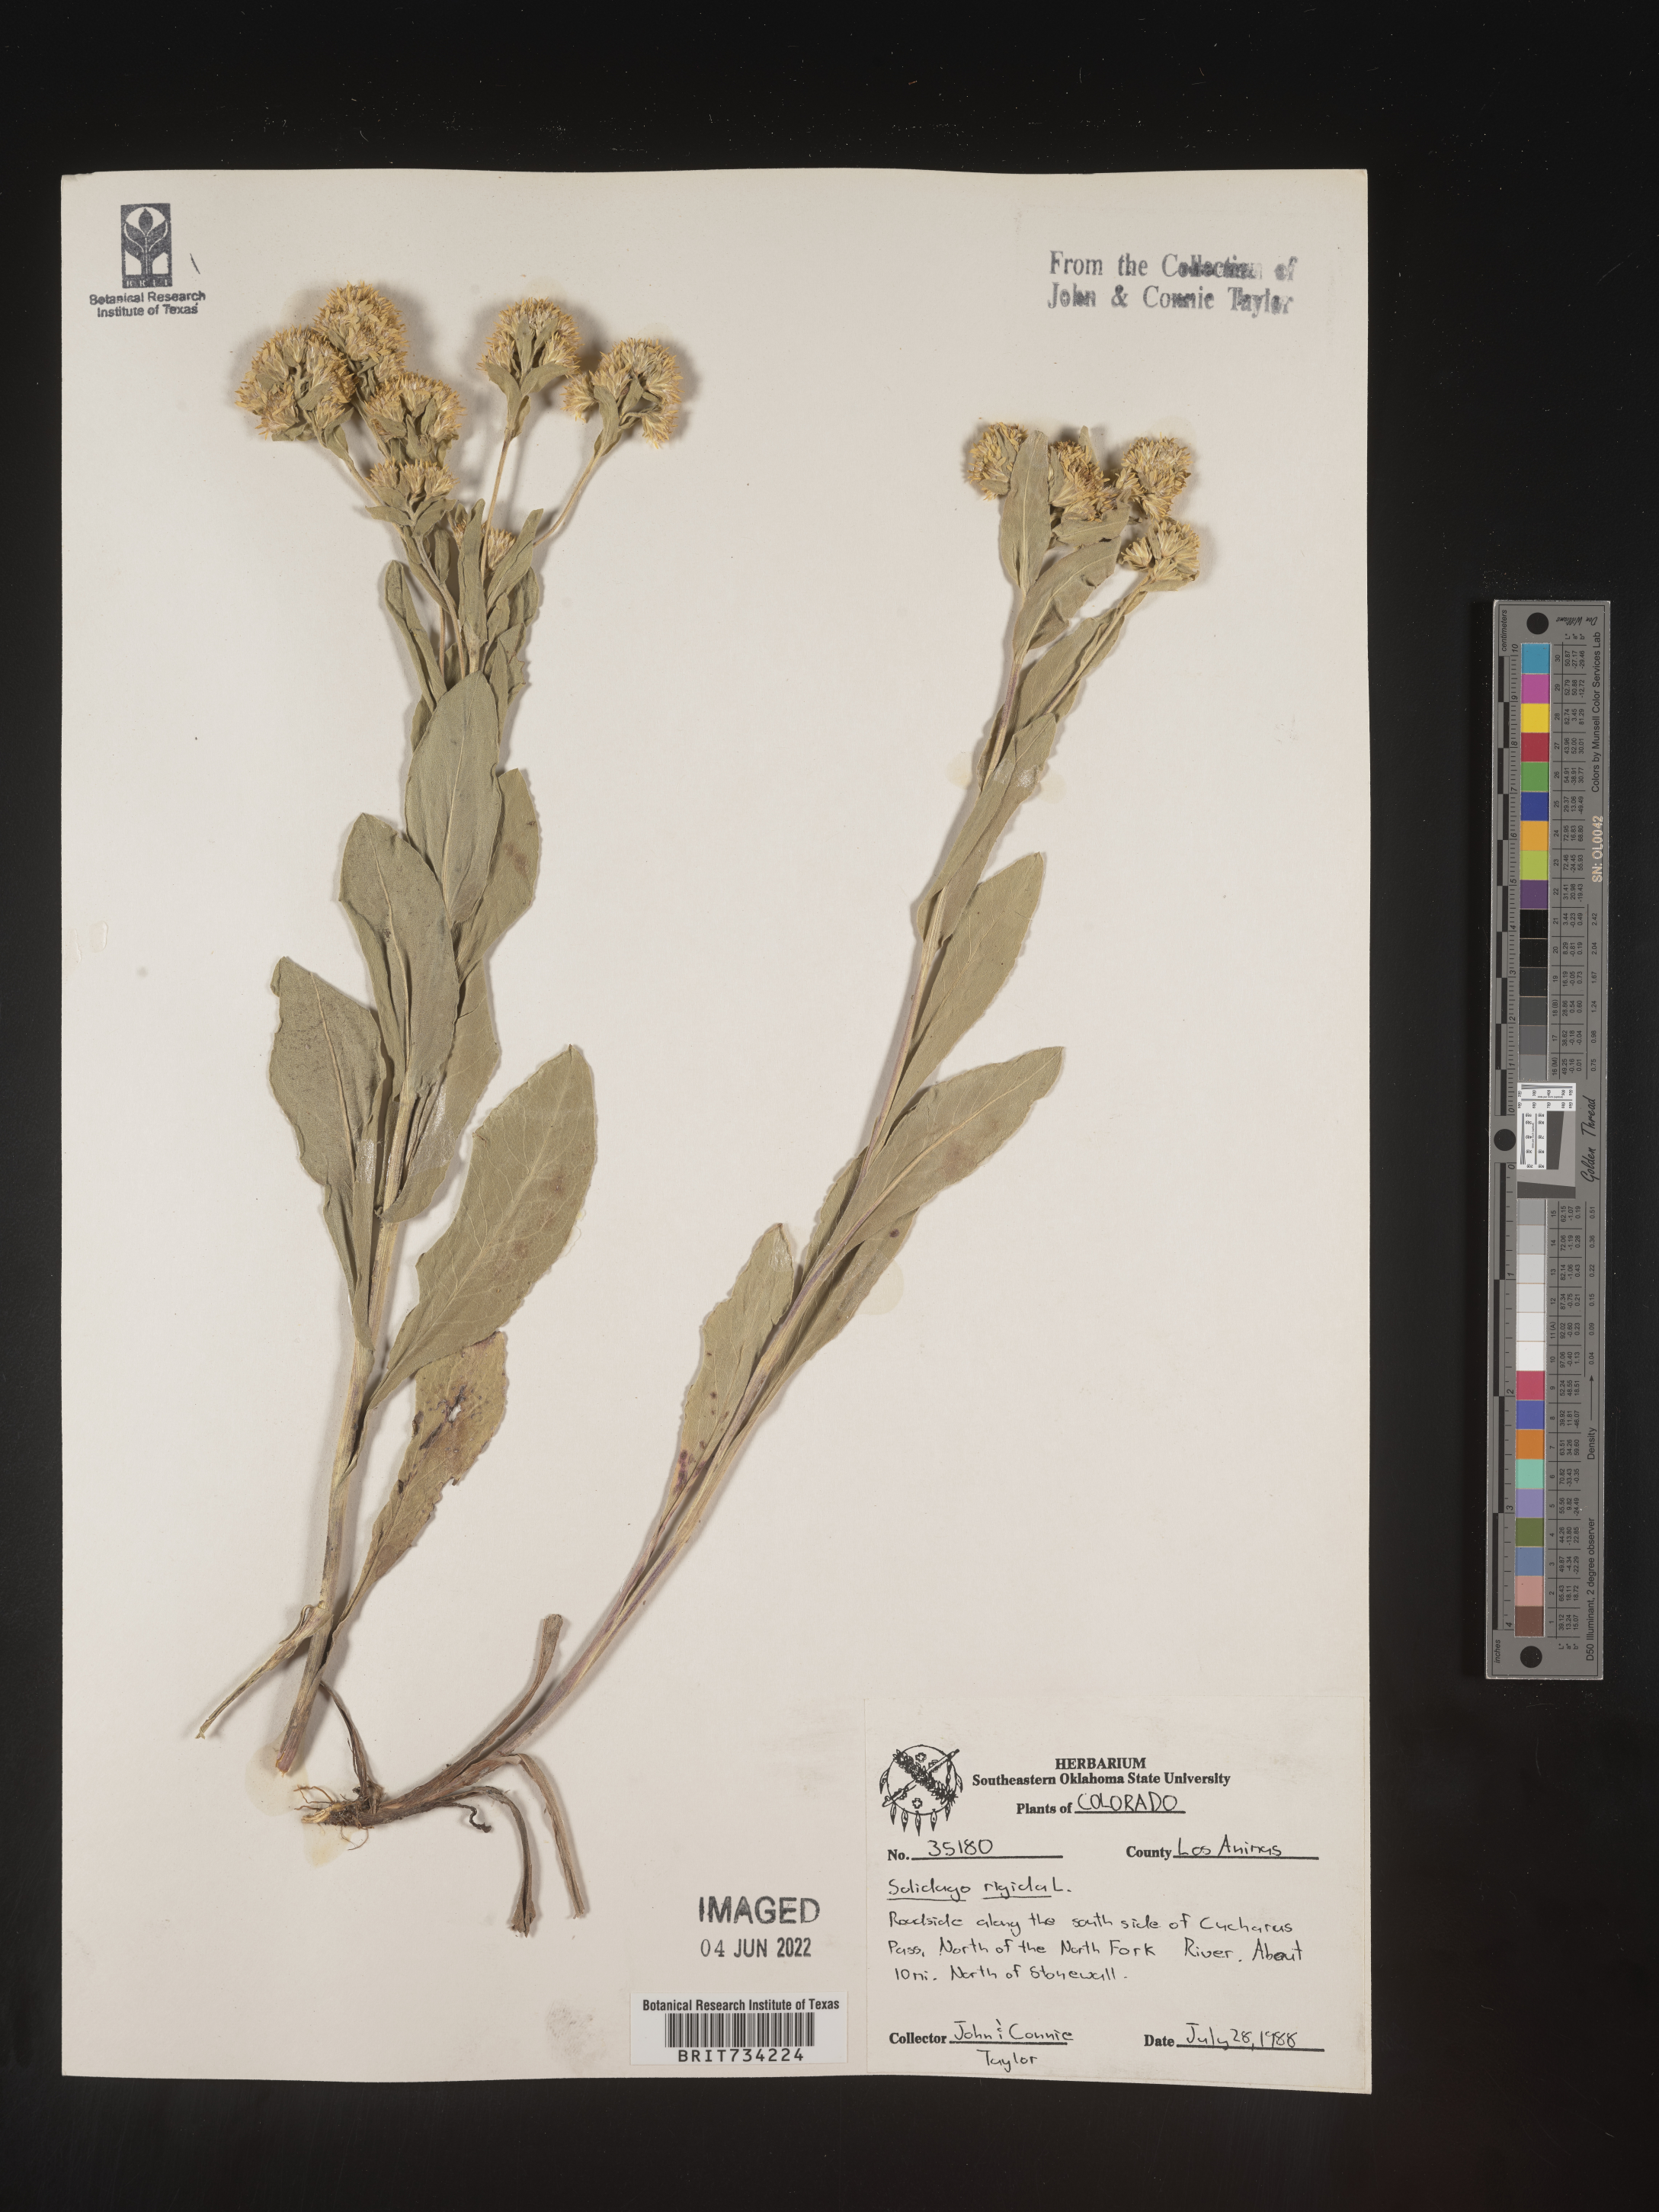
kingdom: Plantae
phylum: Tracheophyta
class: Magnoliopsida
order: Asterales
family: Asteraceae
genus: Solidago
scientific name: Solidago rigida
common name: Rigid goldenrod
